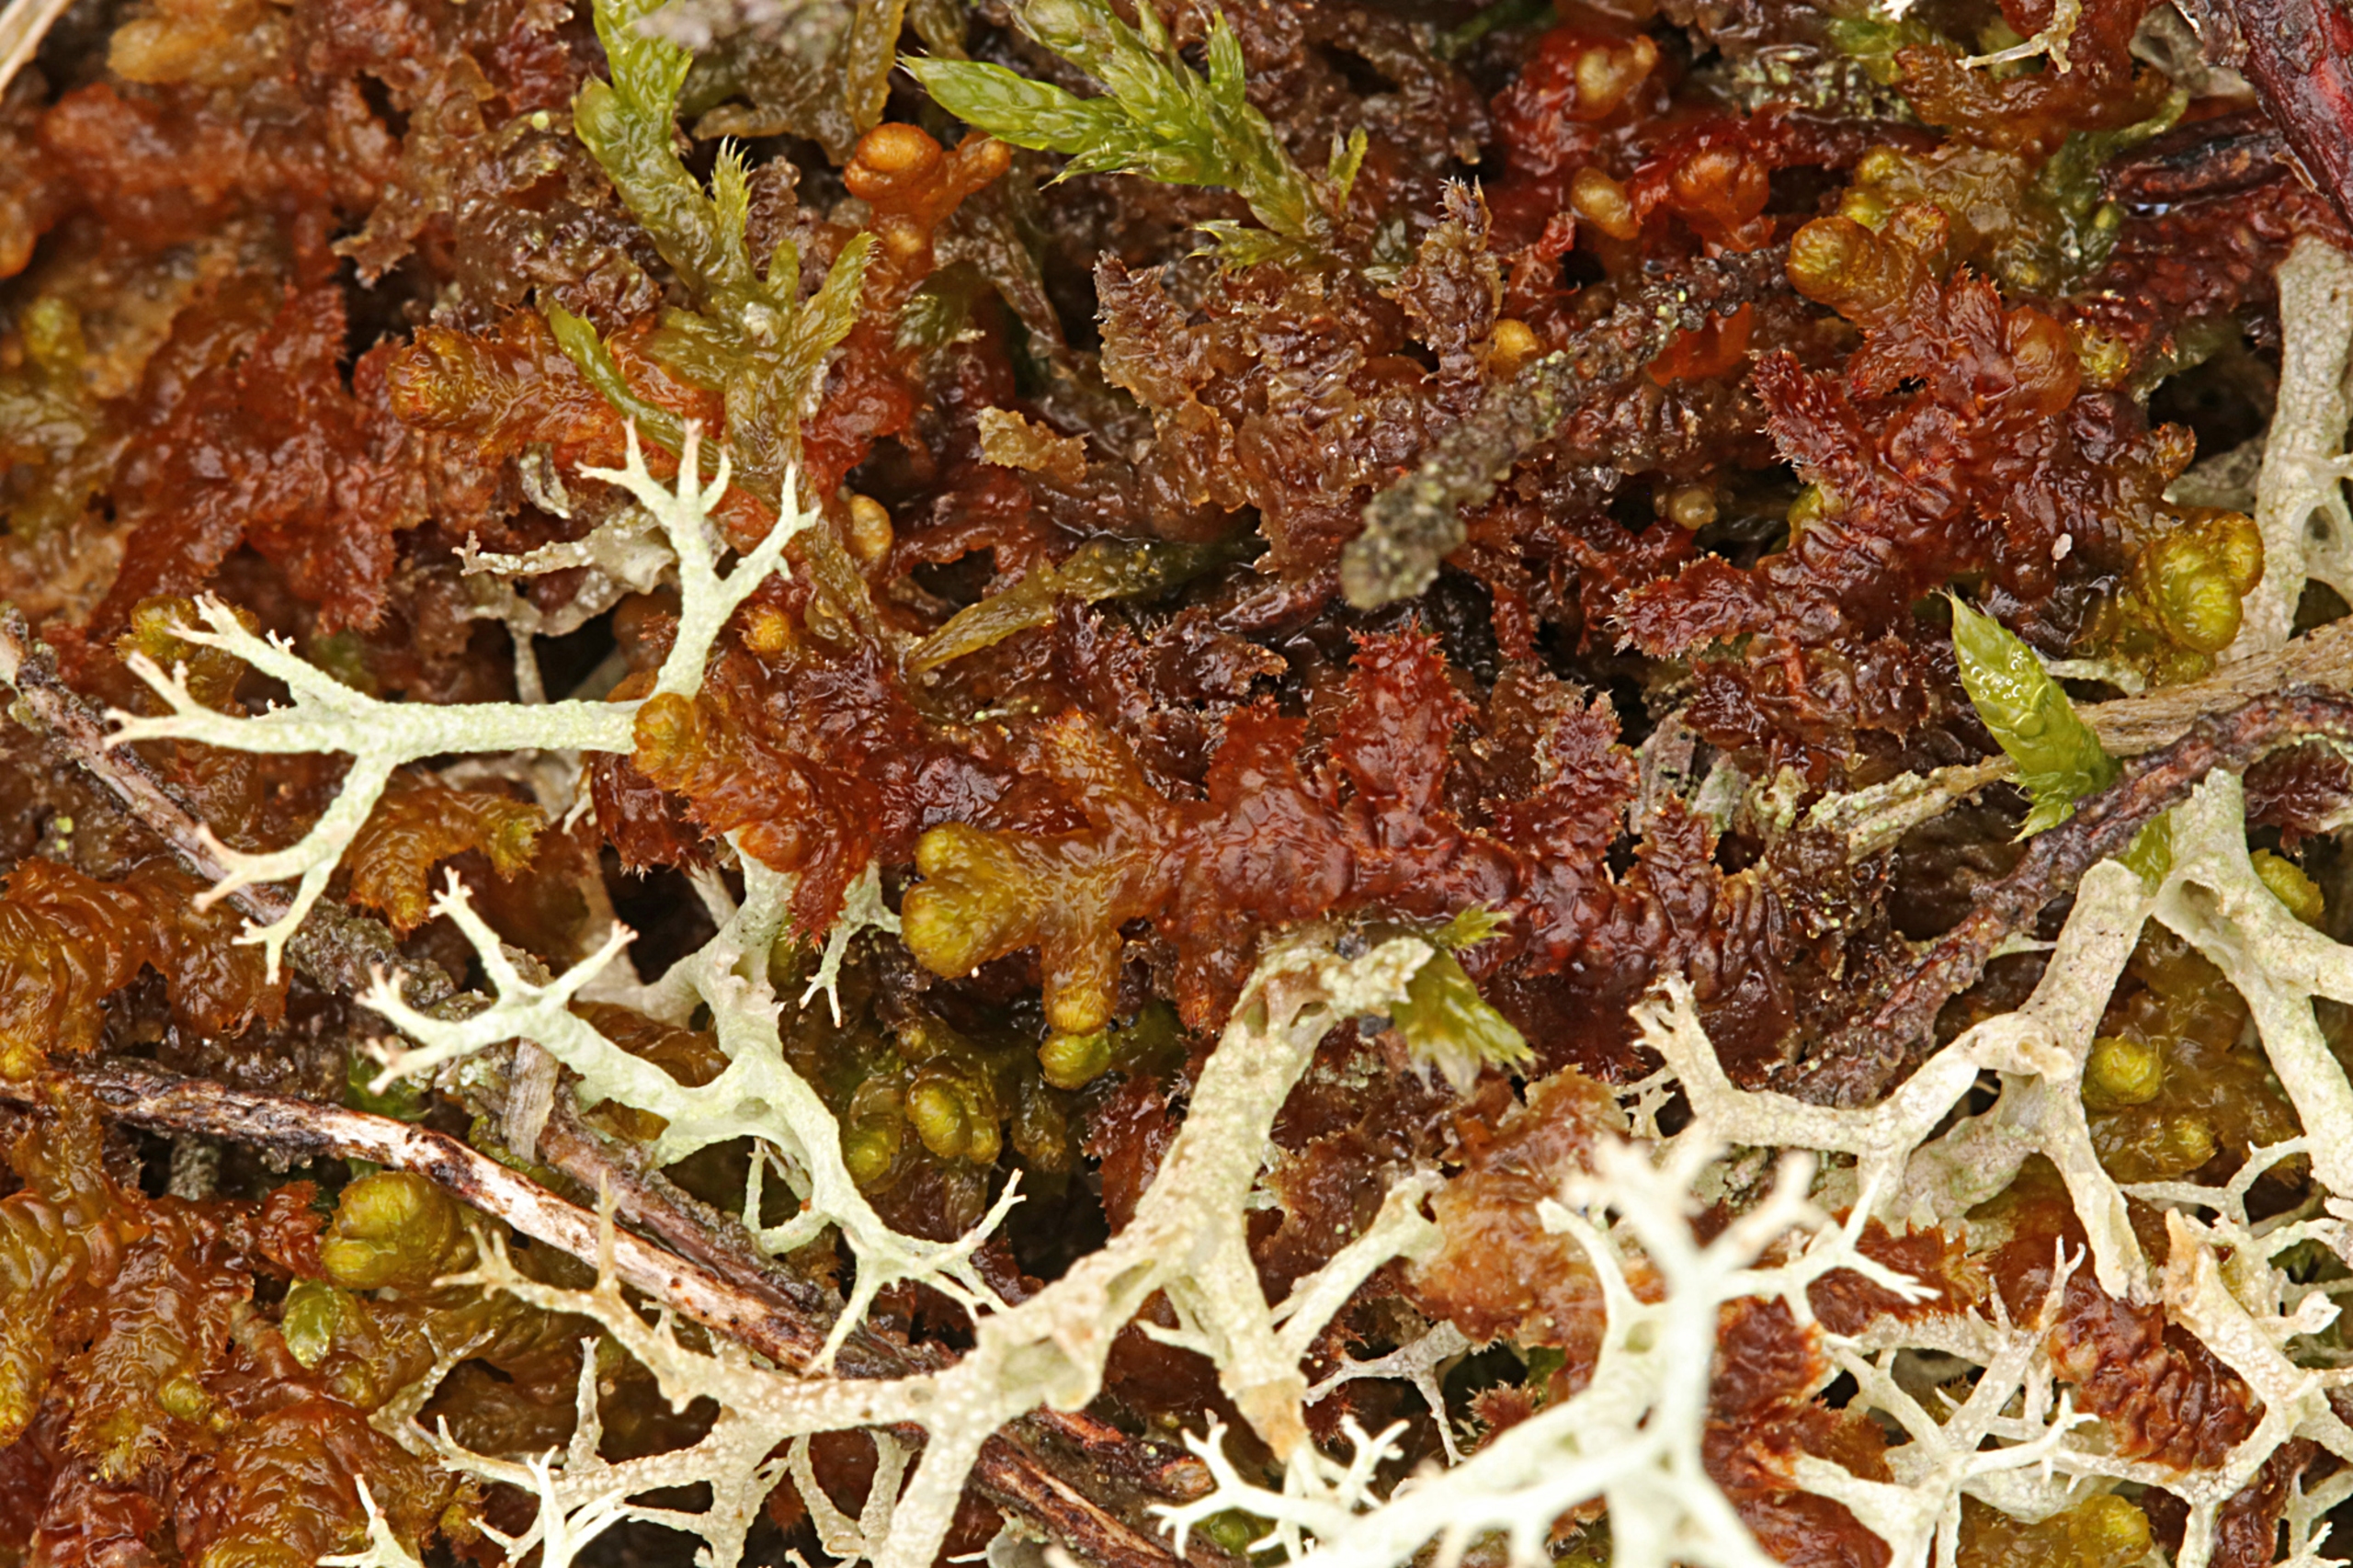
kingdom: Plantae
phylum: Marchantiophyta
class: Jungermanniopsida
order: Ptilidiales
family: Ptilidiaceae
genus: Ptilidium
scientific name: Ptilidium ciliare
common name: Almindelig frynsemos
